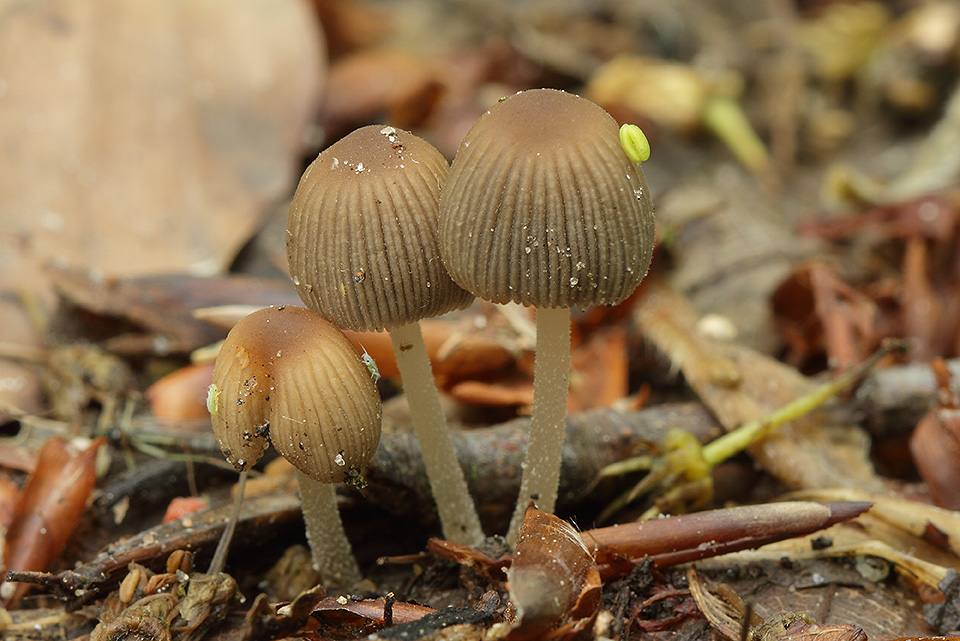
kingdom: Fungi
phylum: Basidiomycota
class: Agaricomycetes
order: Agaricales
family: Psathyrellaceae
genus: Coprinellus
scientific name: Coprinellus disseminatus
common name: bredsået blækhat
